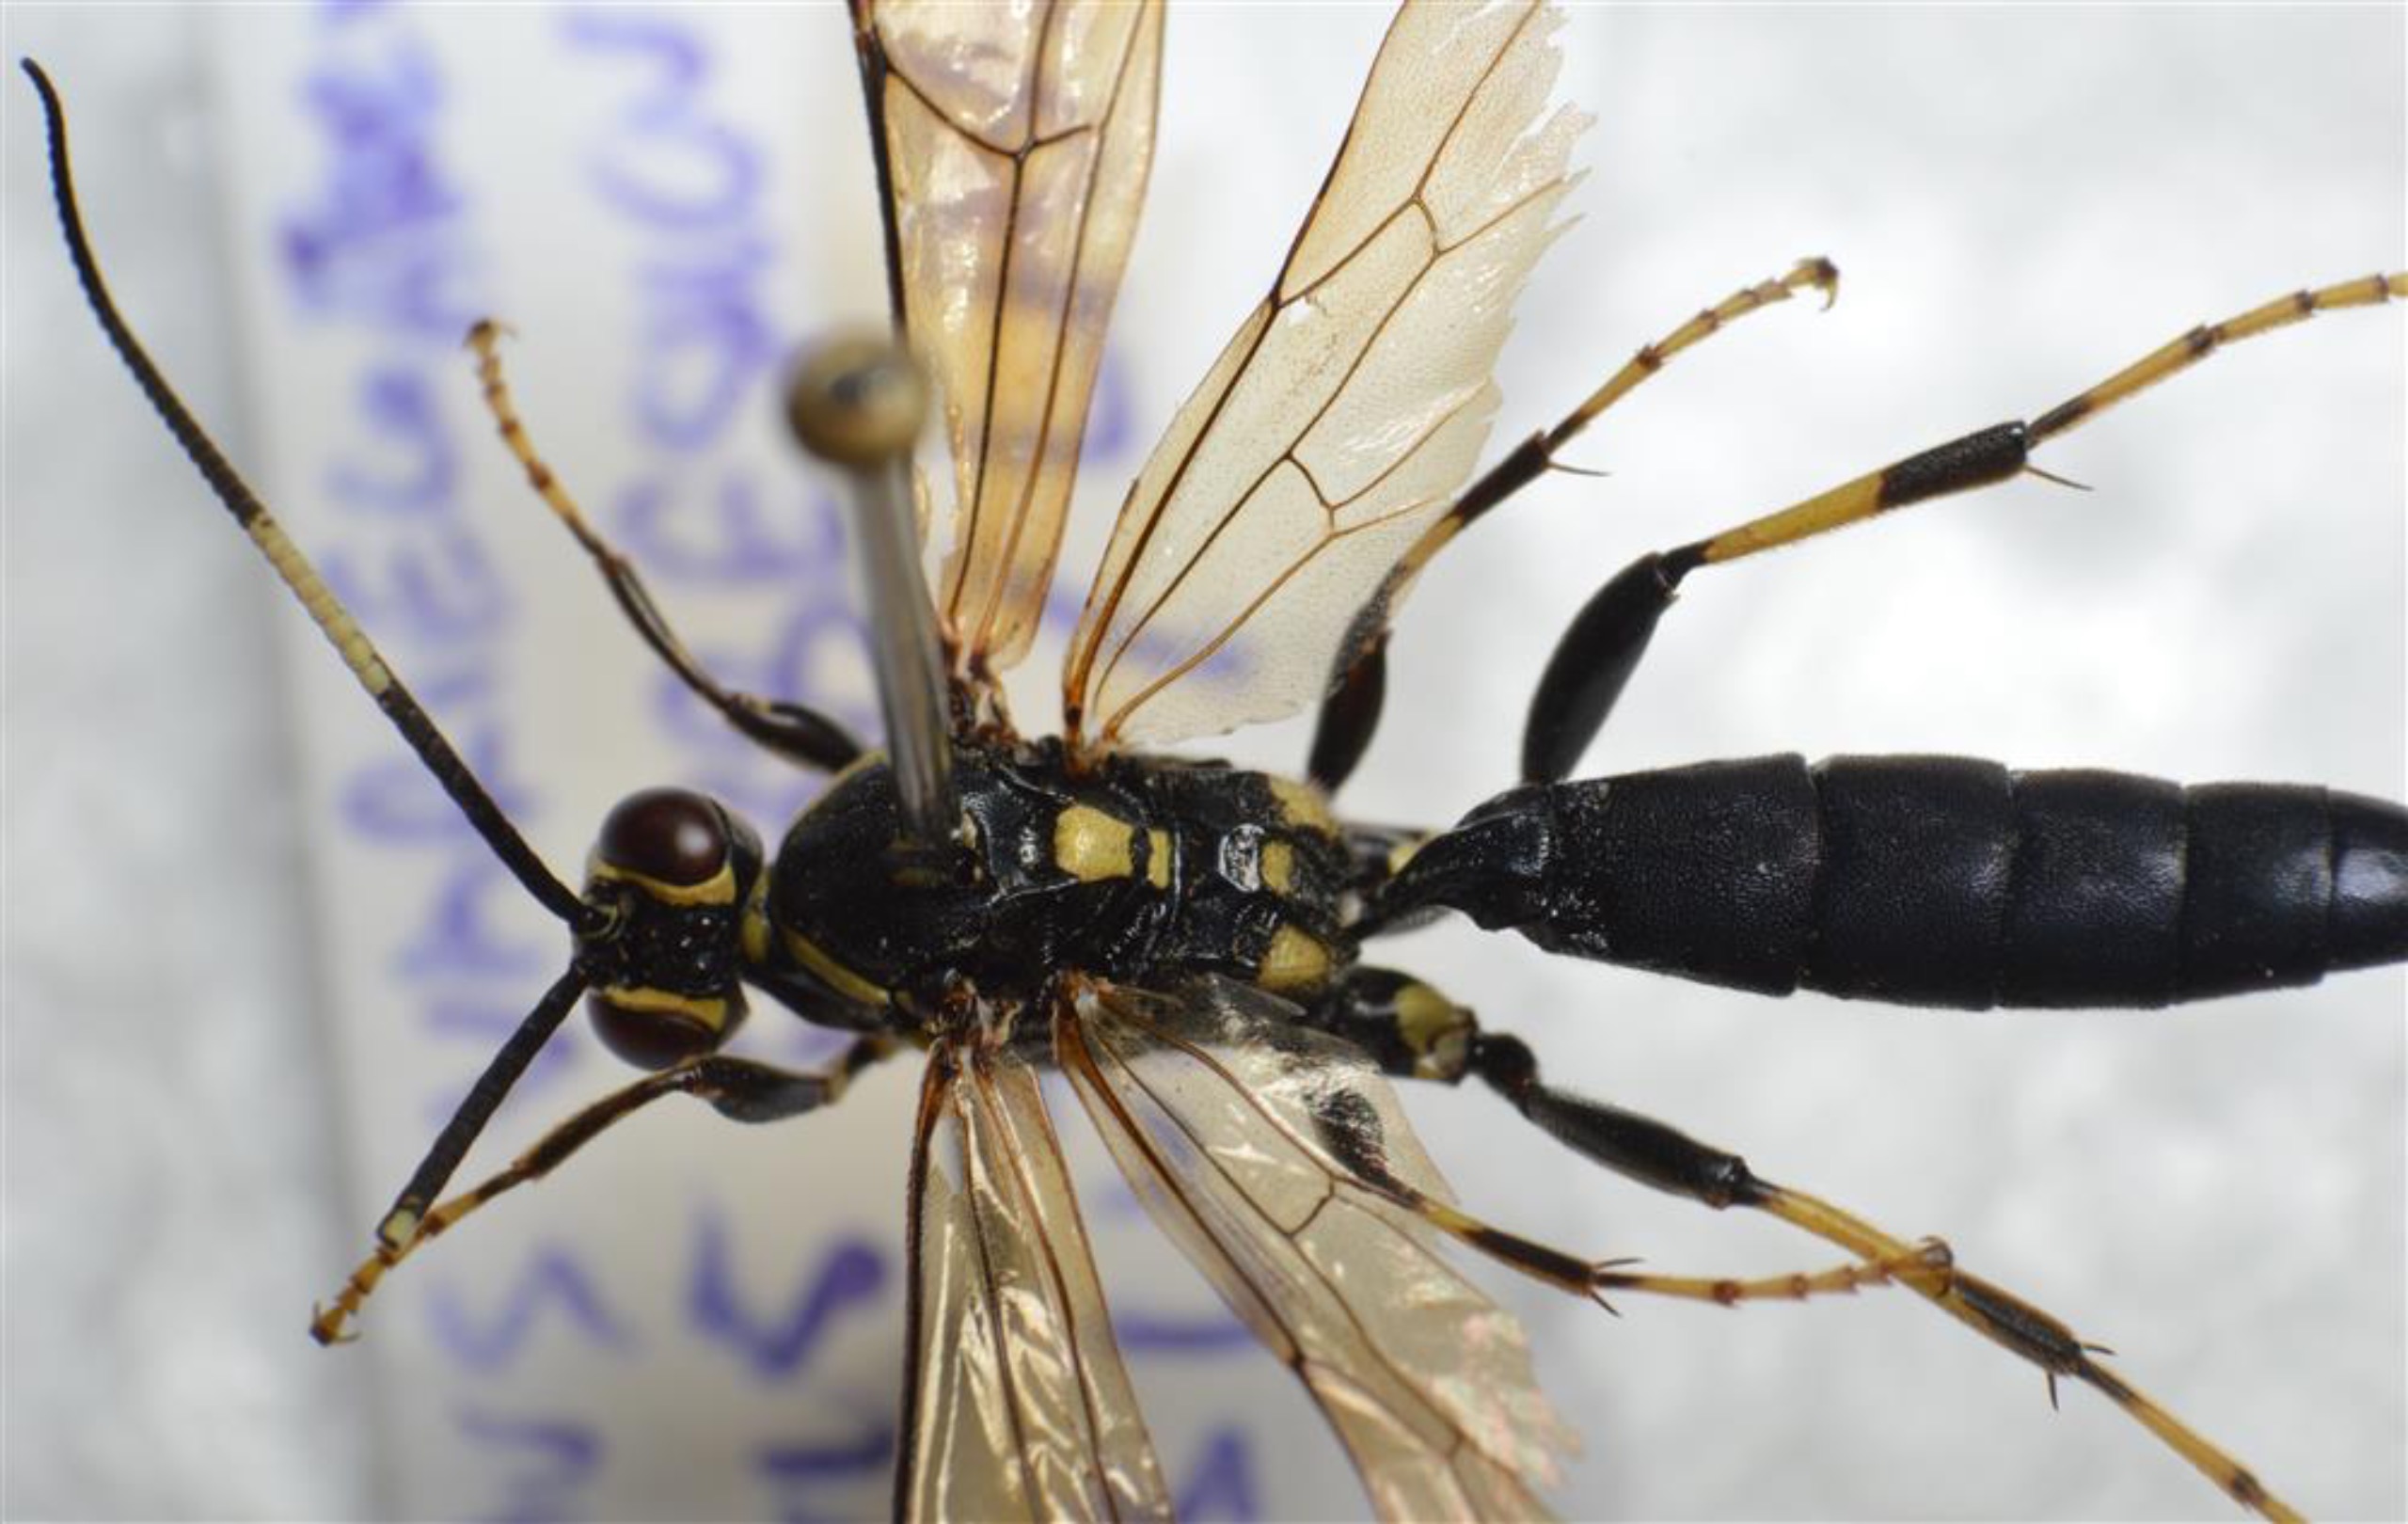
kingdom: Animalia
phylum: Arthropoda
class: Insecta
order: Hymenoptera
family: Ichneumonidae
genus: Coelichneumon
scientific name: Coelichneumon opulentus
